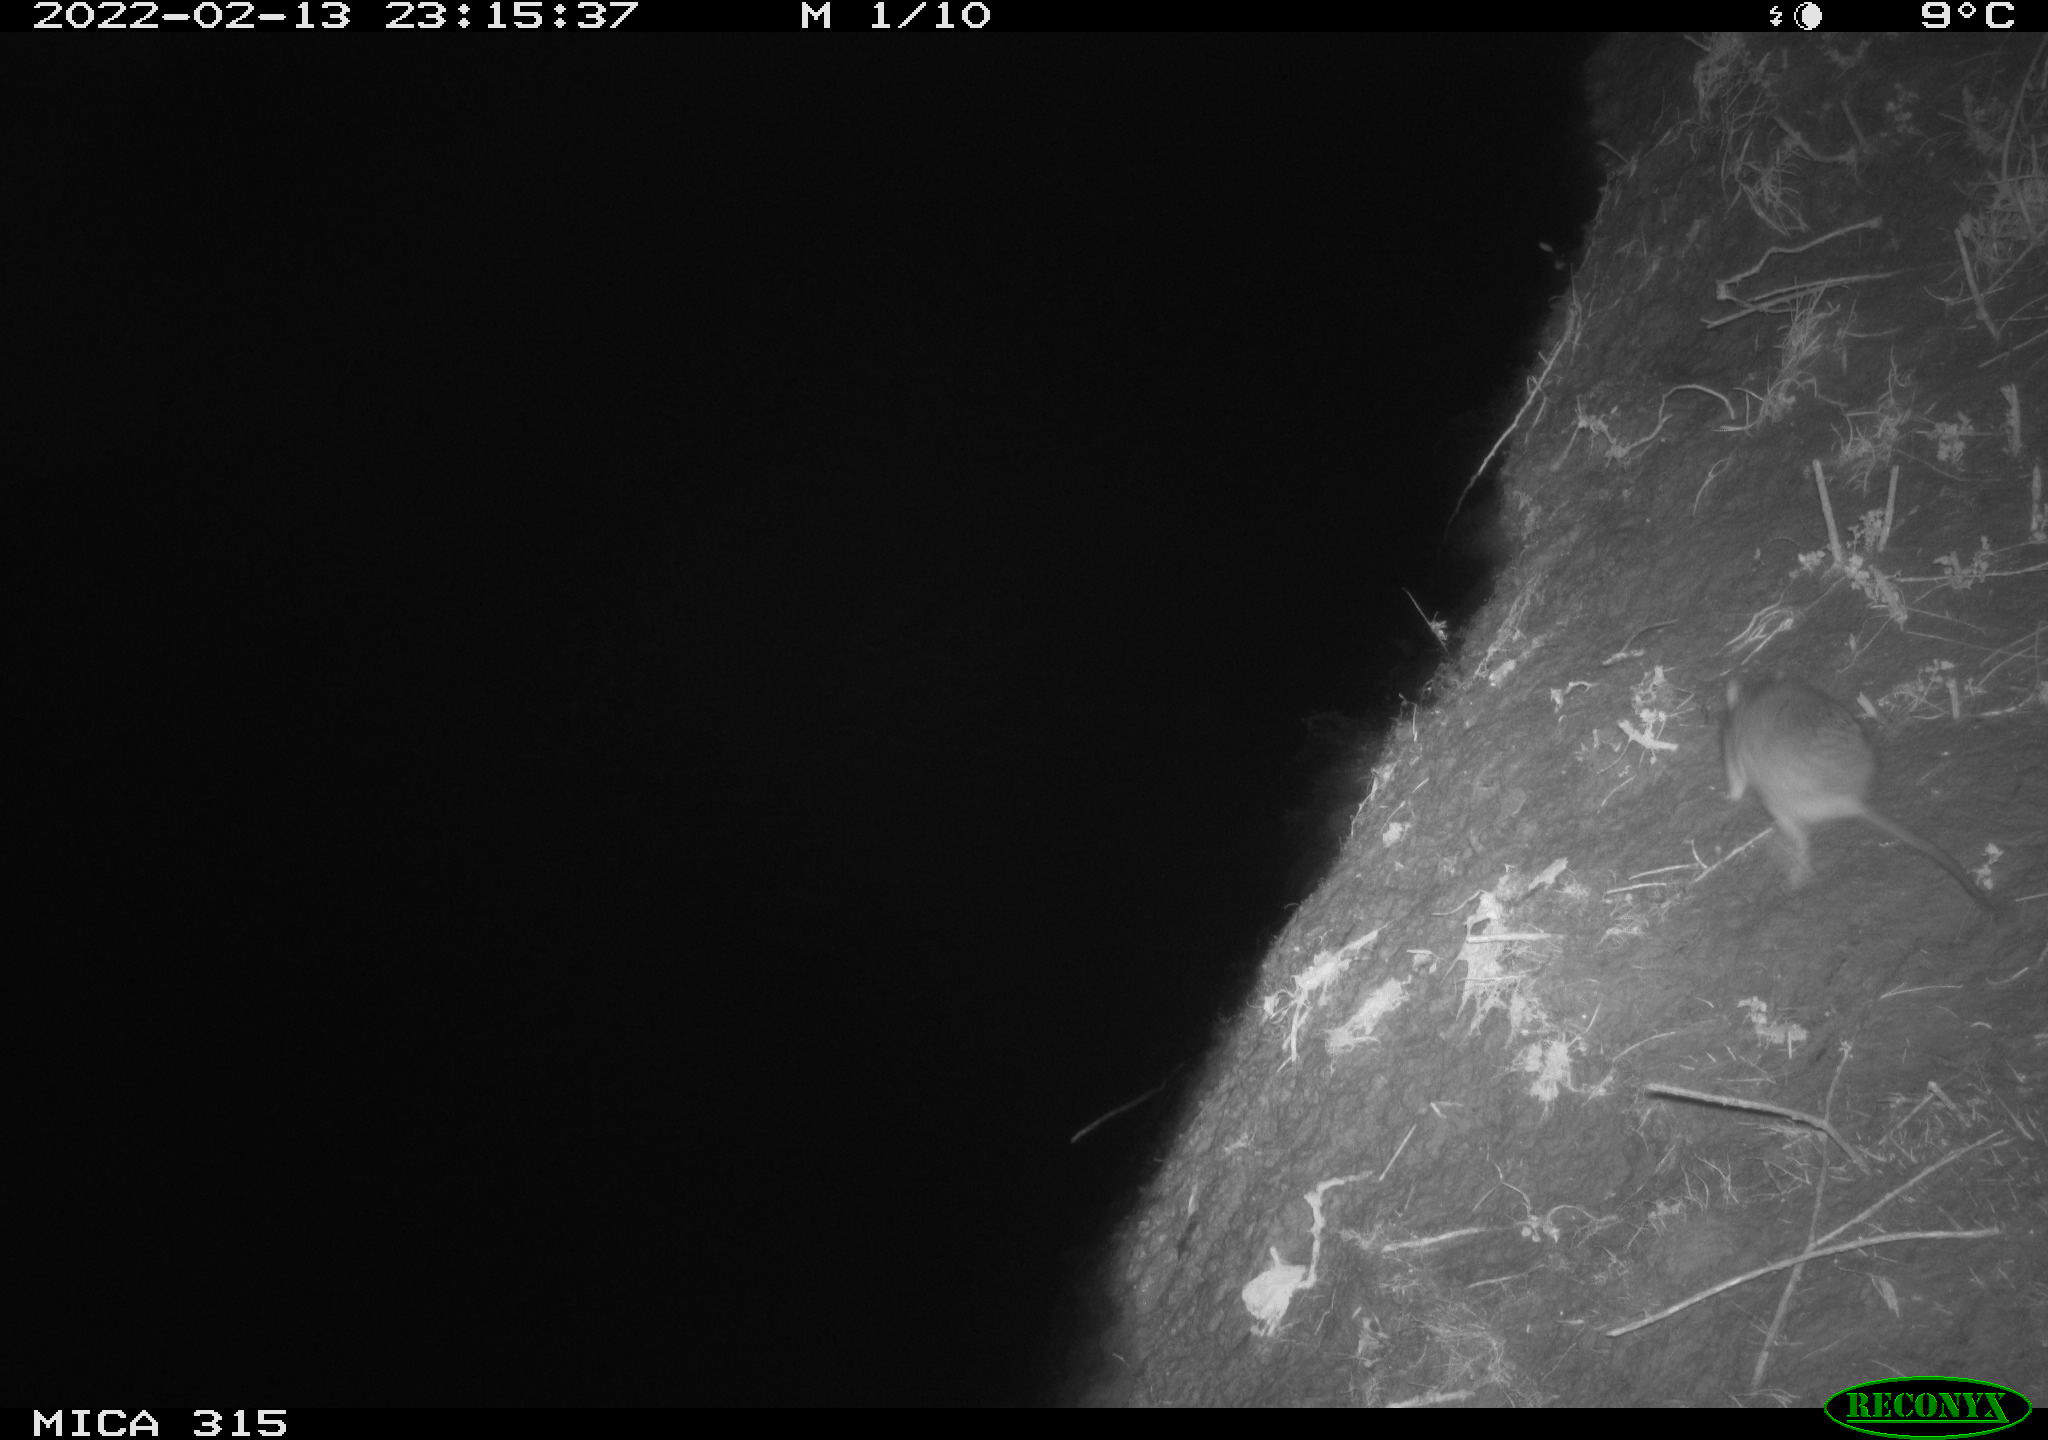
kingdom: Animalia
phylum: Chordata
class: Mammalia
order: Rodentia
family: Muridae
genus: Rattus
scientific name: Rattus norvegicus
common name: Brown rat
